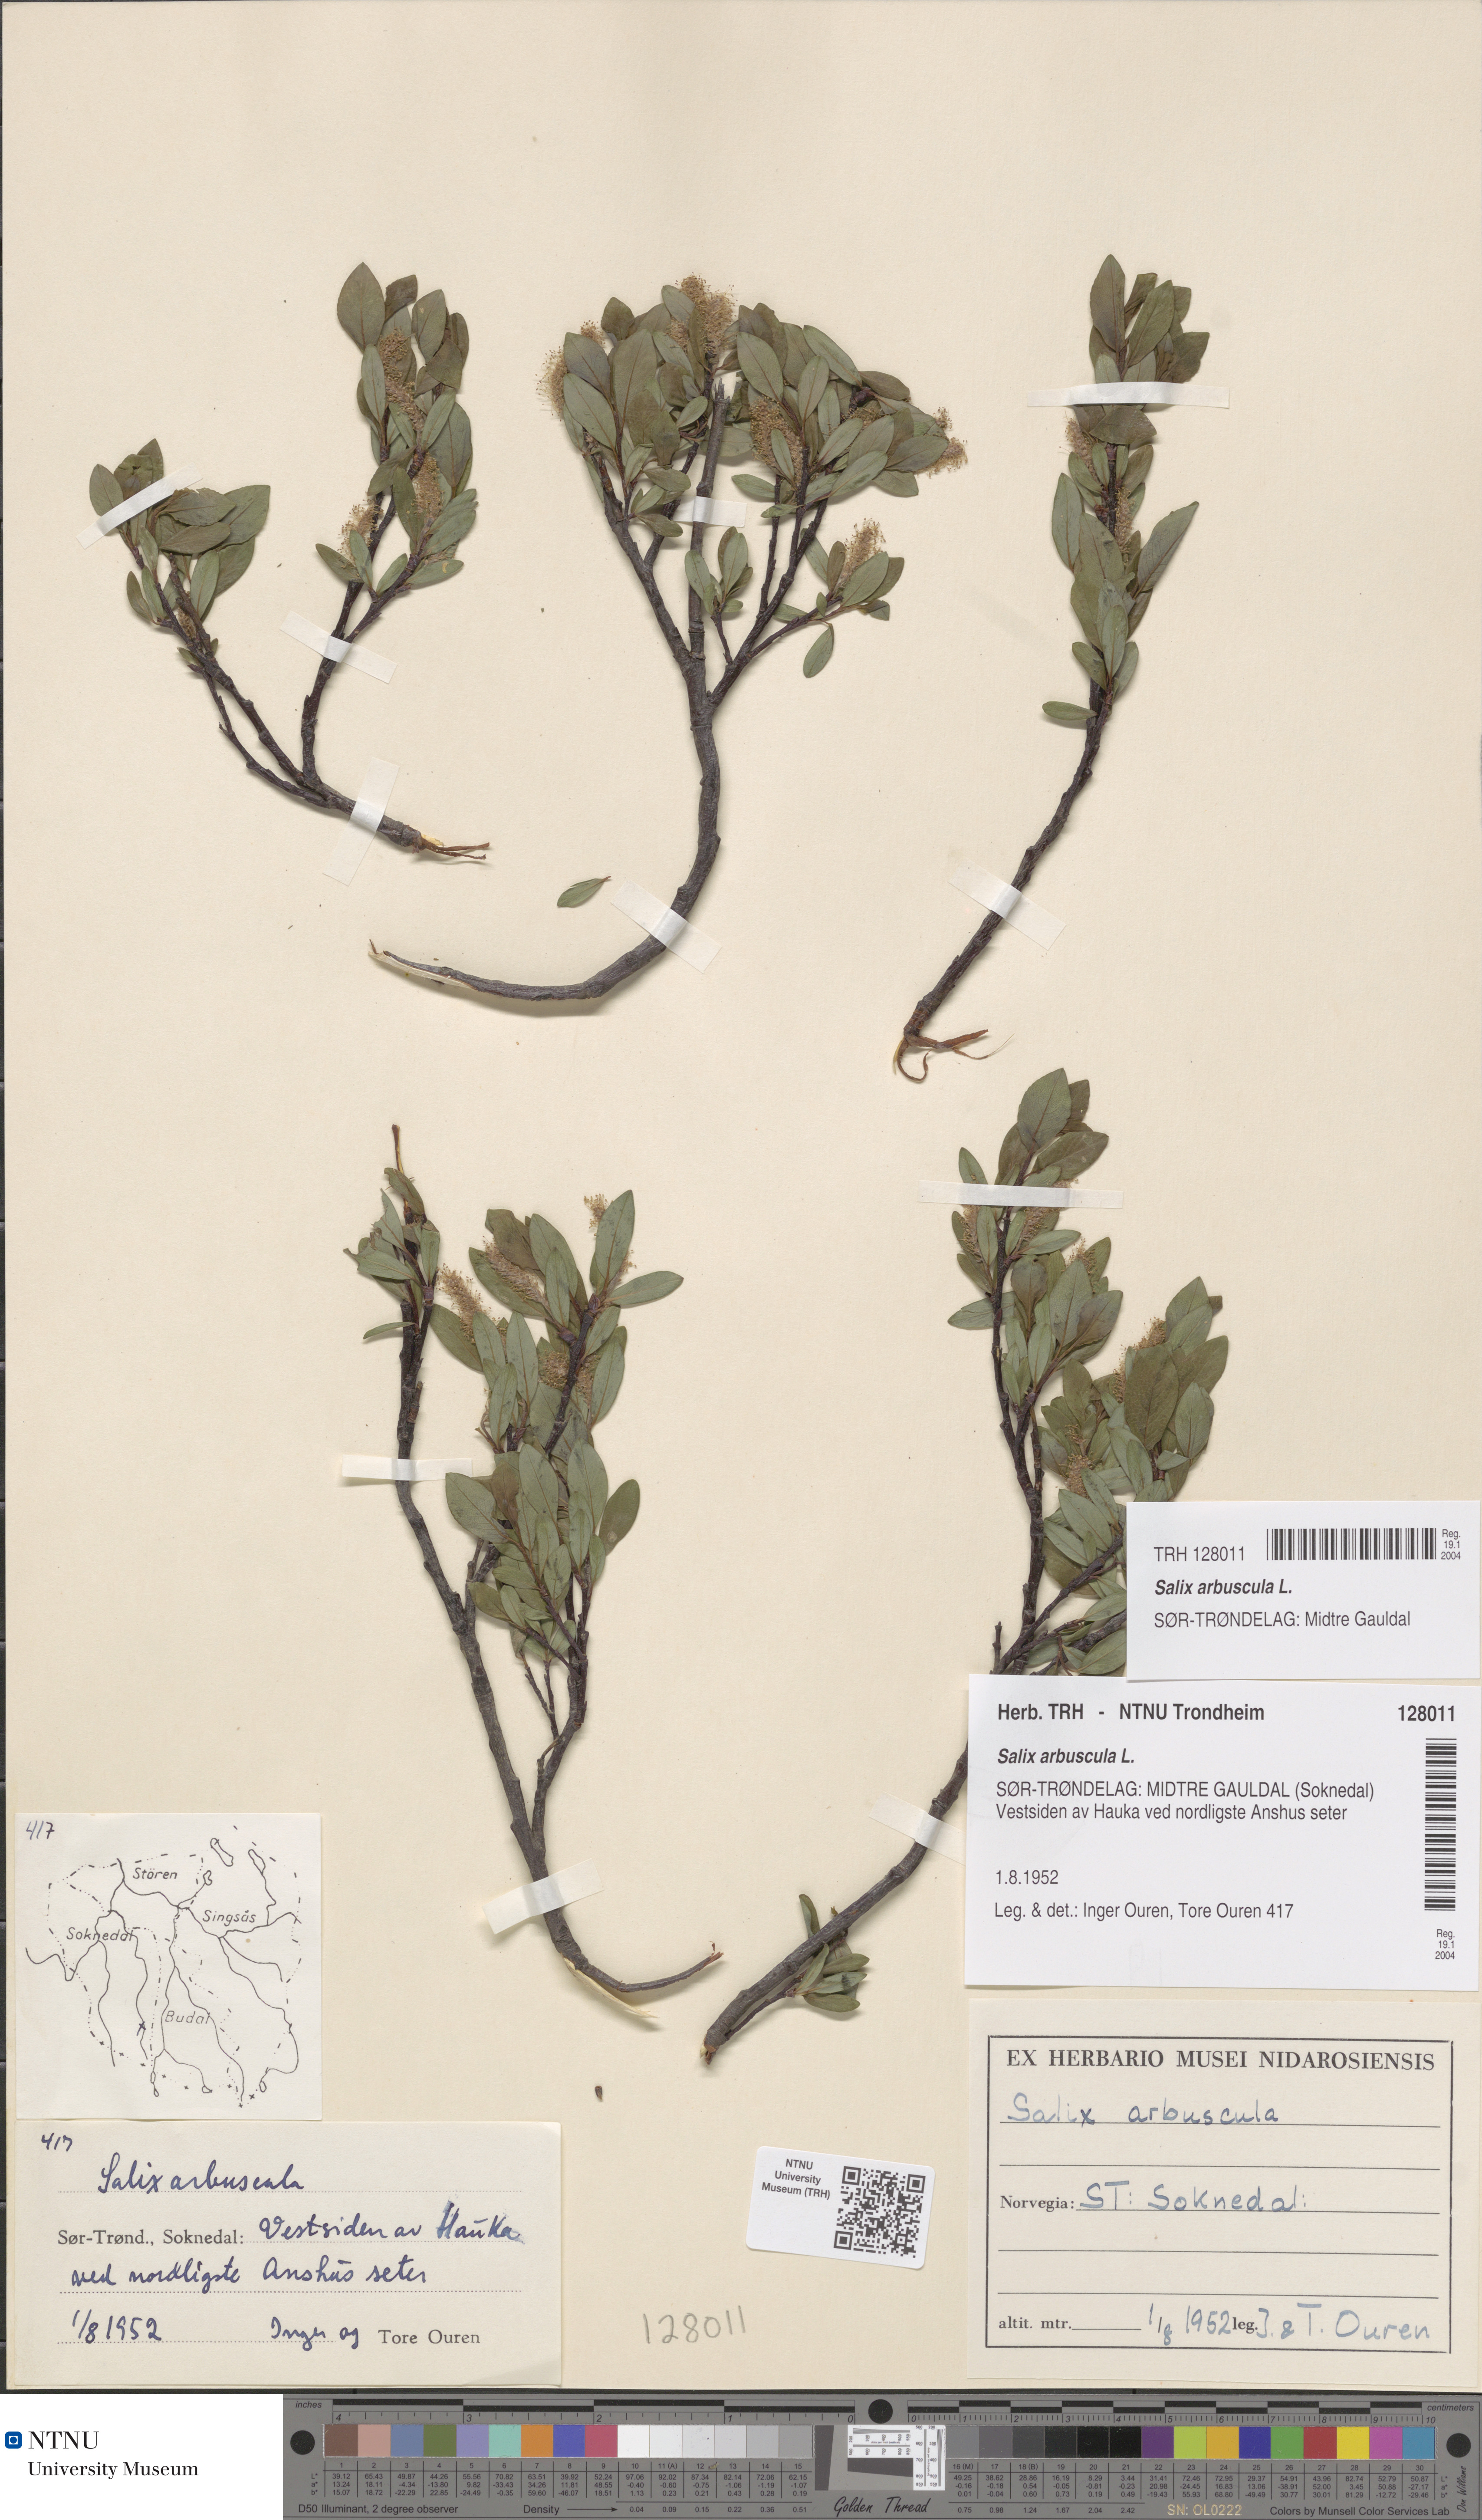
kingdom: Plantae
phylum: Tracheophyta
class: Magnoliopsida
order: Malpighiales
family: Salicaceae
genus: Salix
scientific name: Salix arbuscula
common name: Mountain willow
